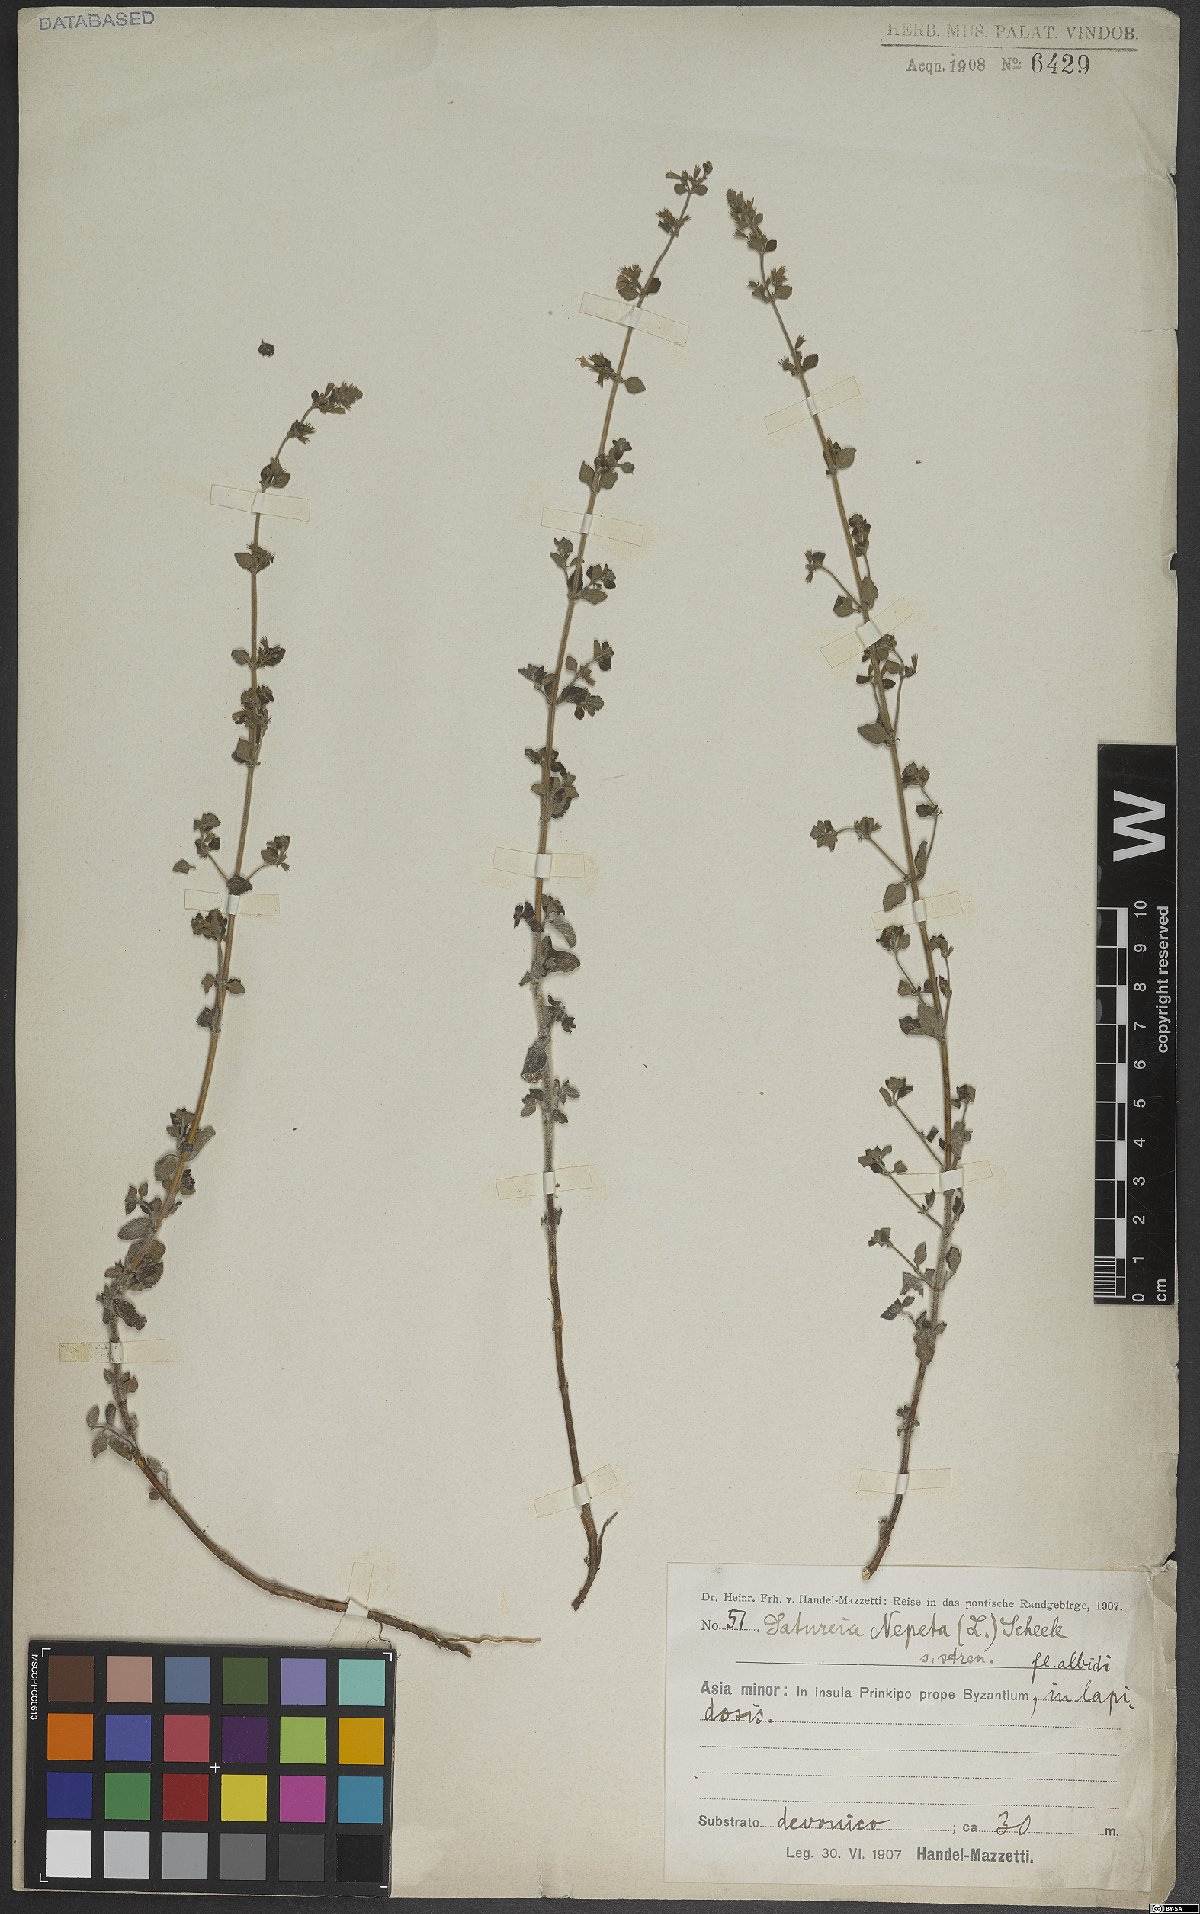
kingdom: Plantae
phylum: Tracheophyta
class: Magnoliopsida
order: Lamiales
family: Lamiaceae
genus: Clinopodium
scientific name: Clinopodium nepeta
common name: Lesser calamint
